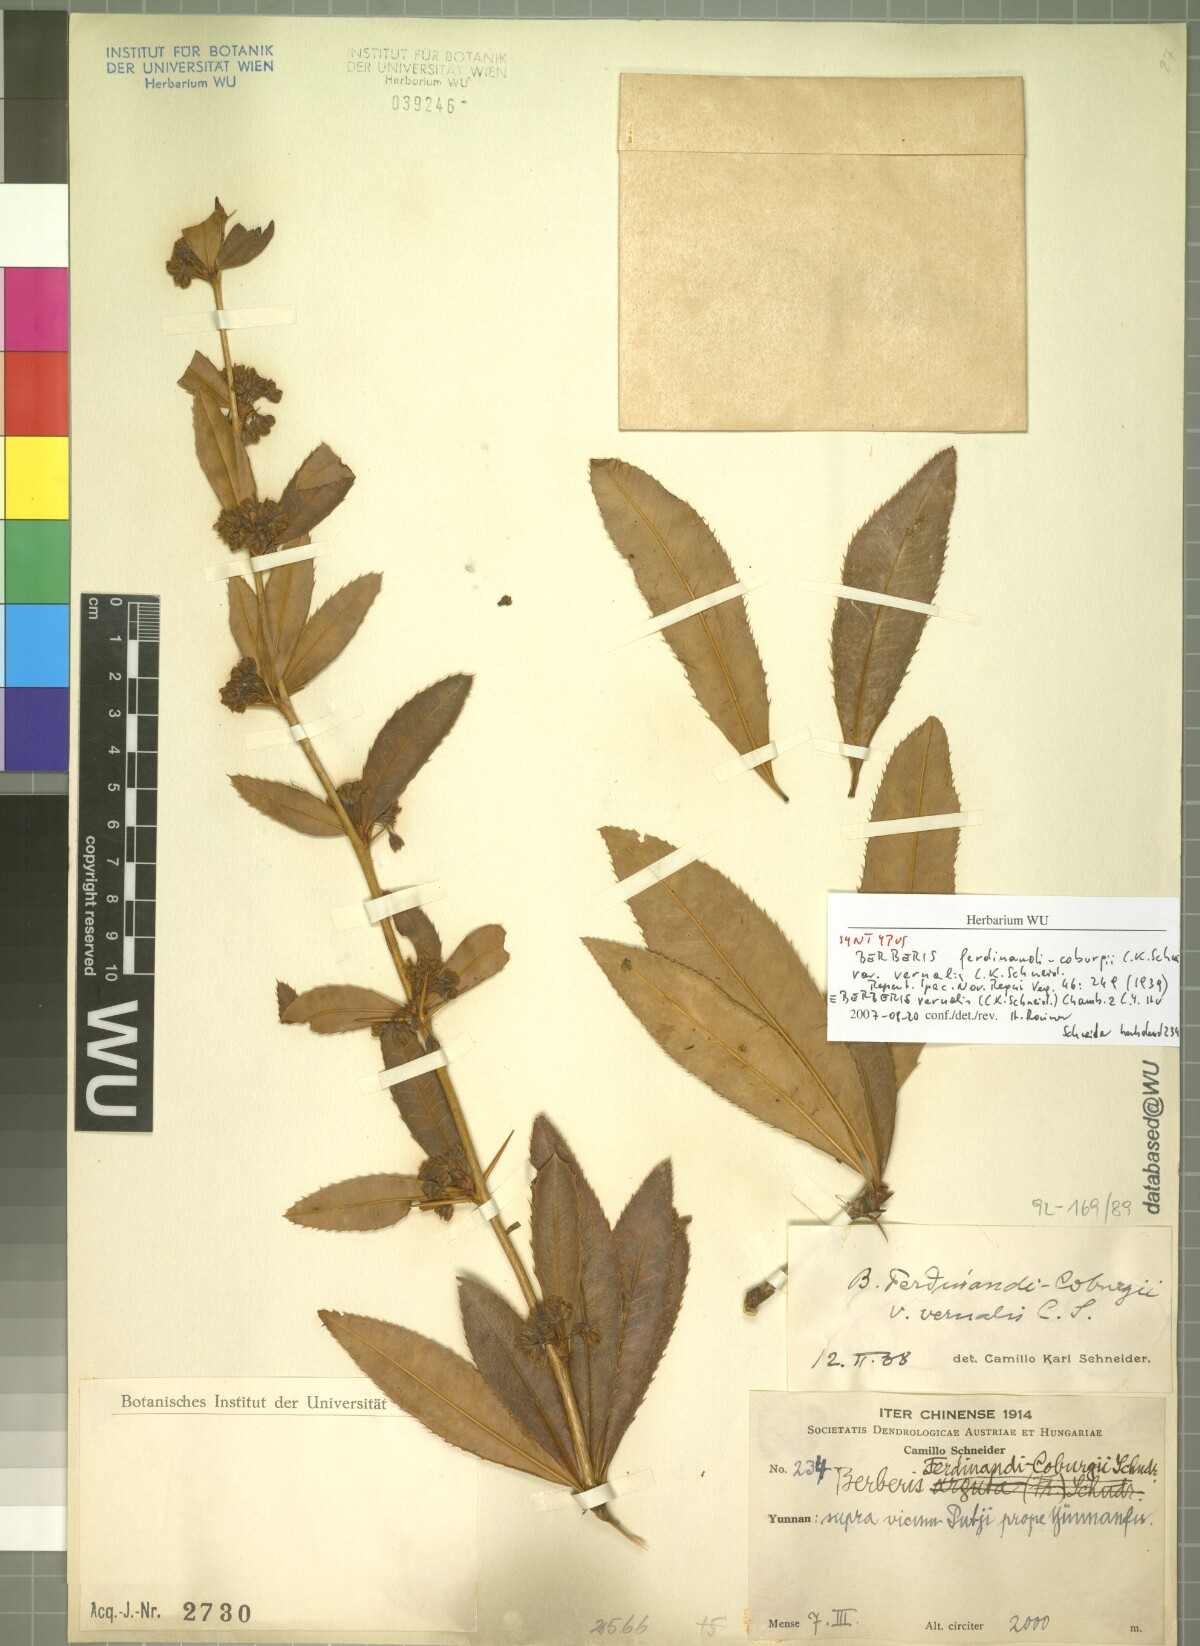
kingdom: Plantae
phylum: Tracheophyta
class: Magnoliopsida
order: Ranunculales
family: Berberidaceae
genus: Berberis
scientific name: Berberis ferdinandi-coburgii
